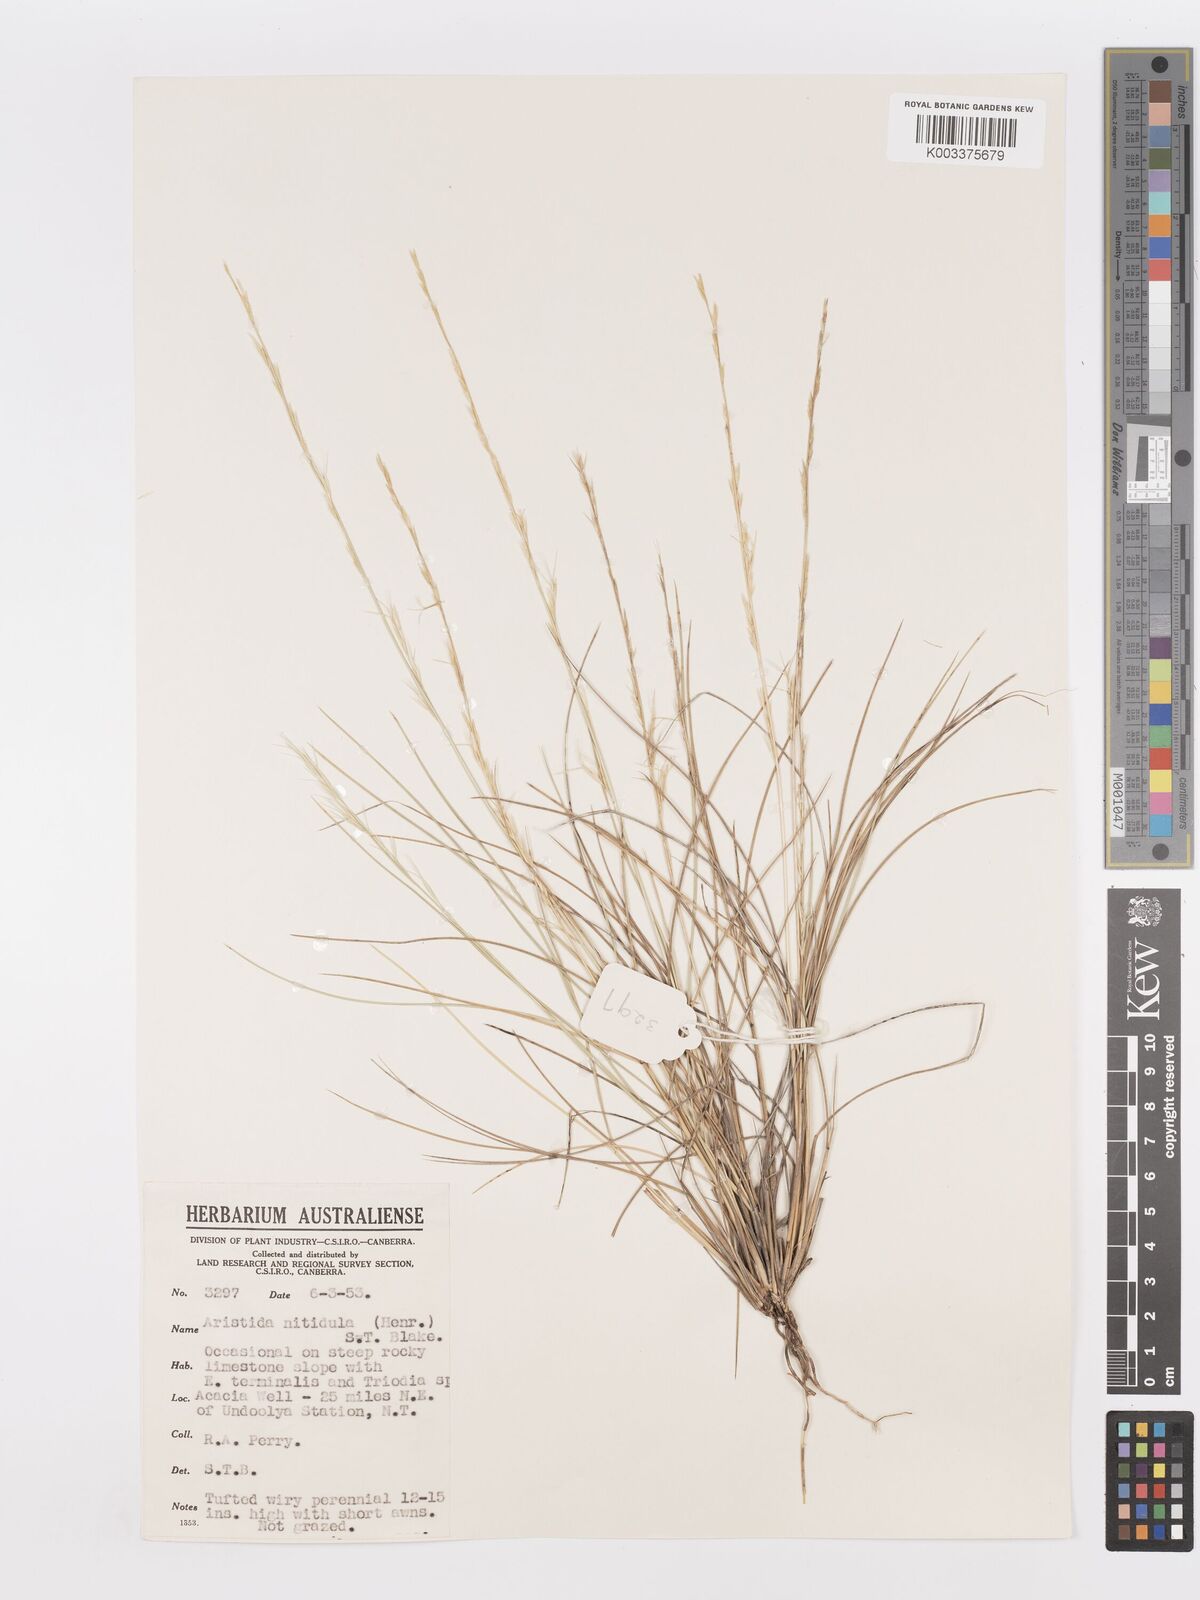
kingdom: Plantae
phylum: Tracheophyta
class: Liliopsida
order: Poales
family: Poaceae
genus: Aristida
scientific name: Aristida nitidula
